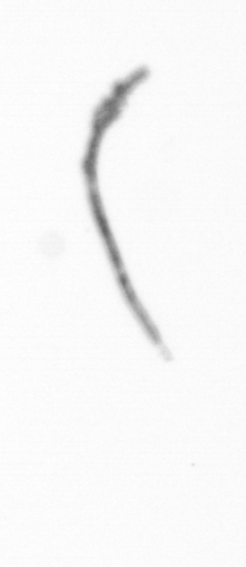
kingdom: Chromista
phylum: Ochrophyta
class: Bacillariophyceae
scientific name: Bacillariophyceae
